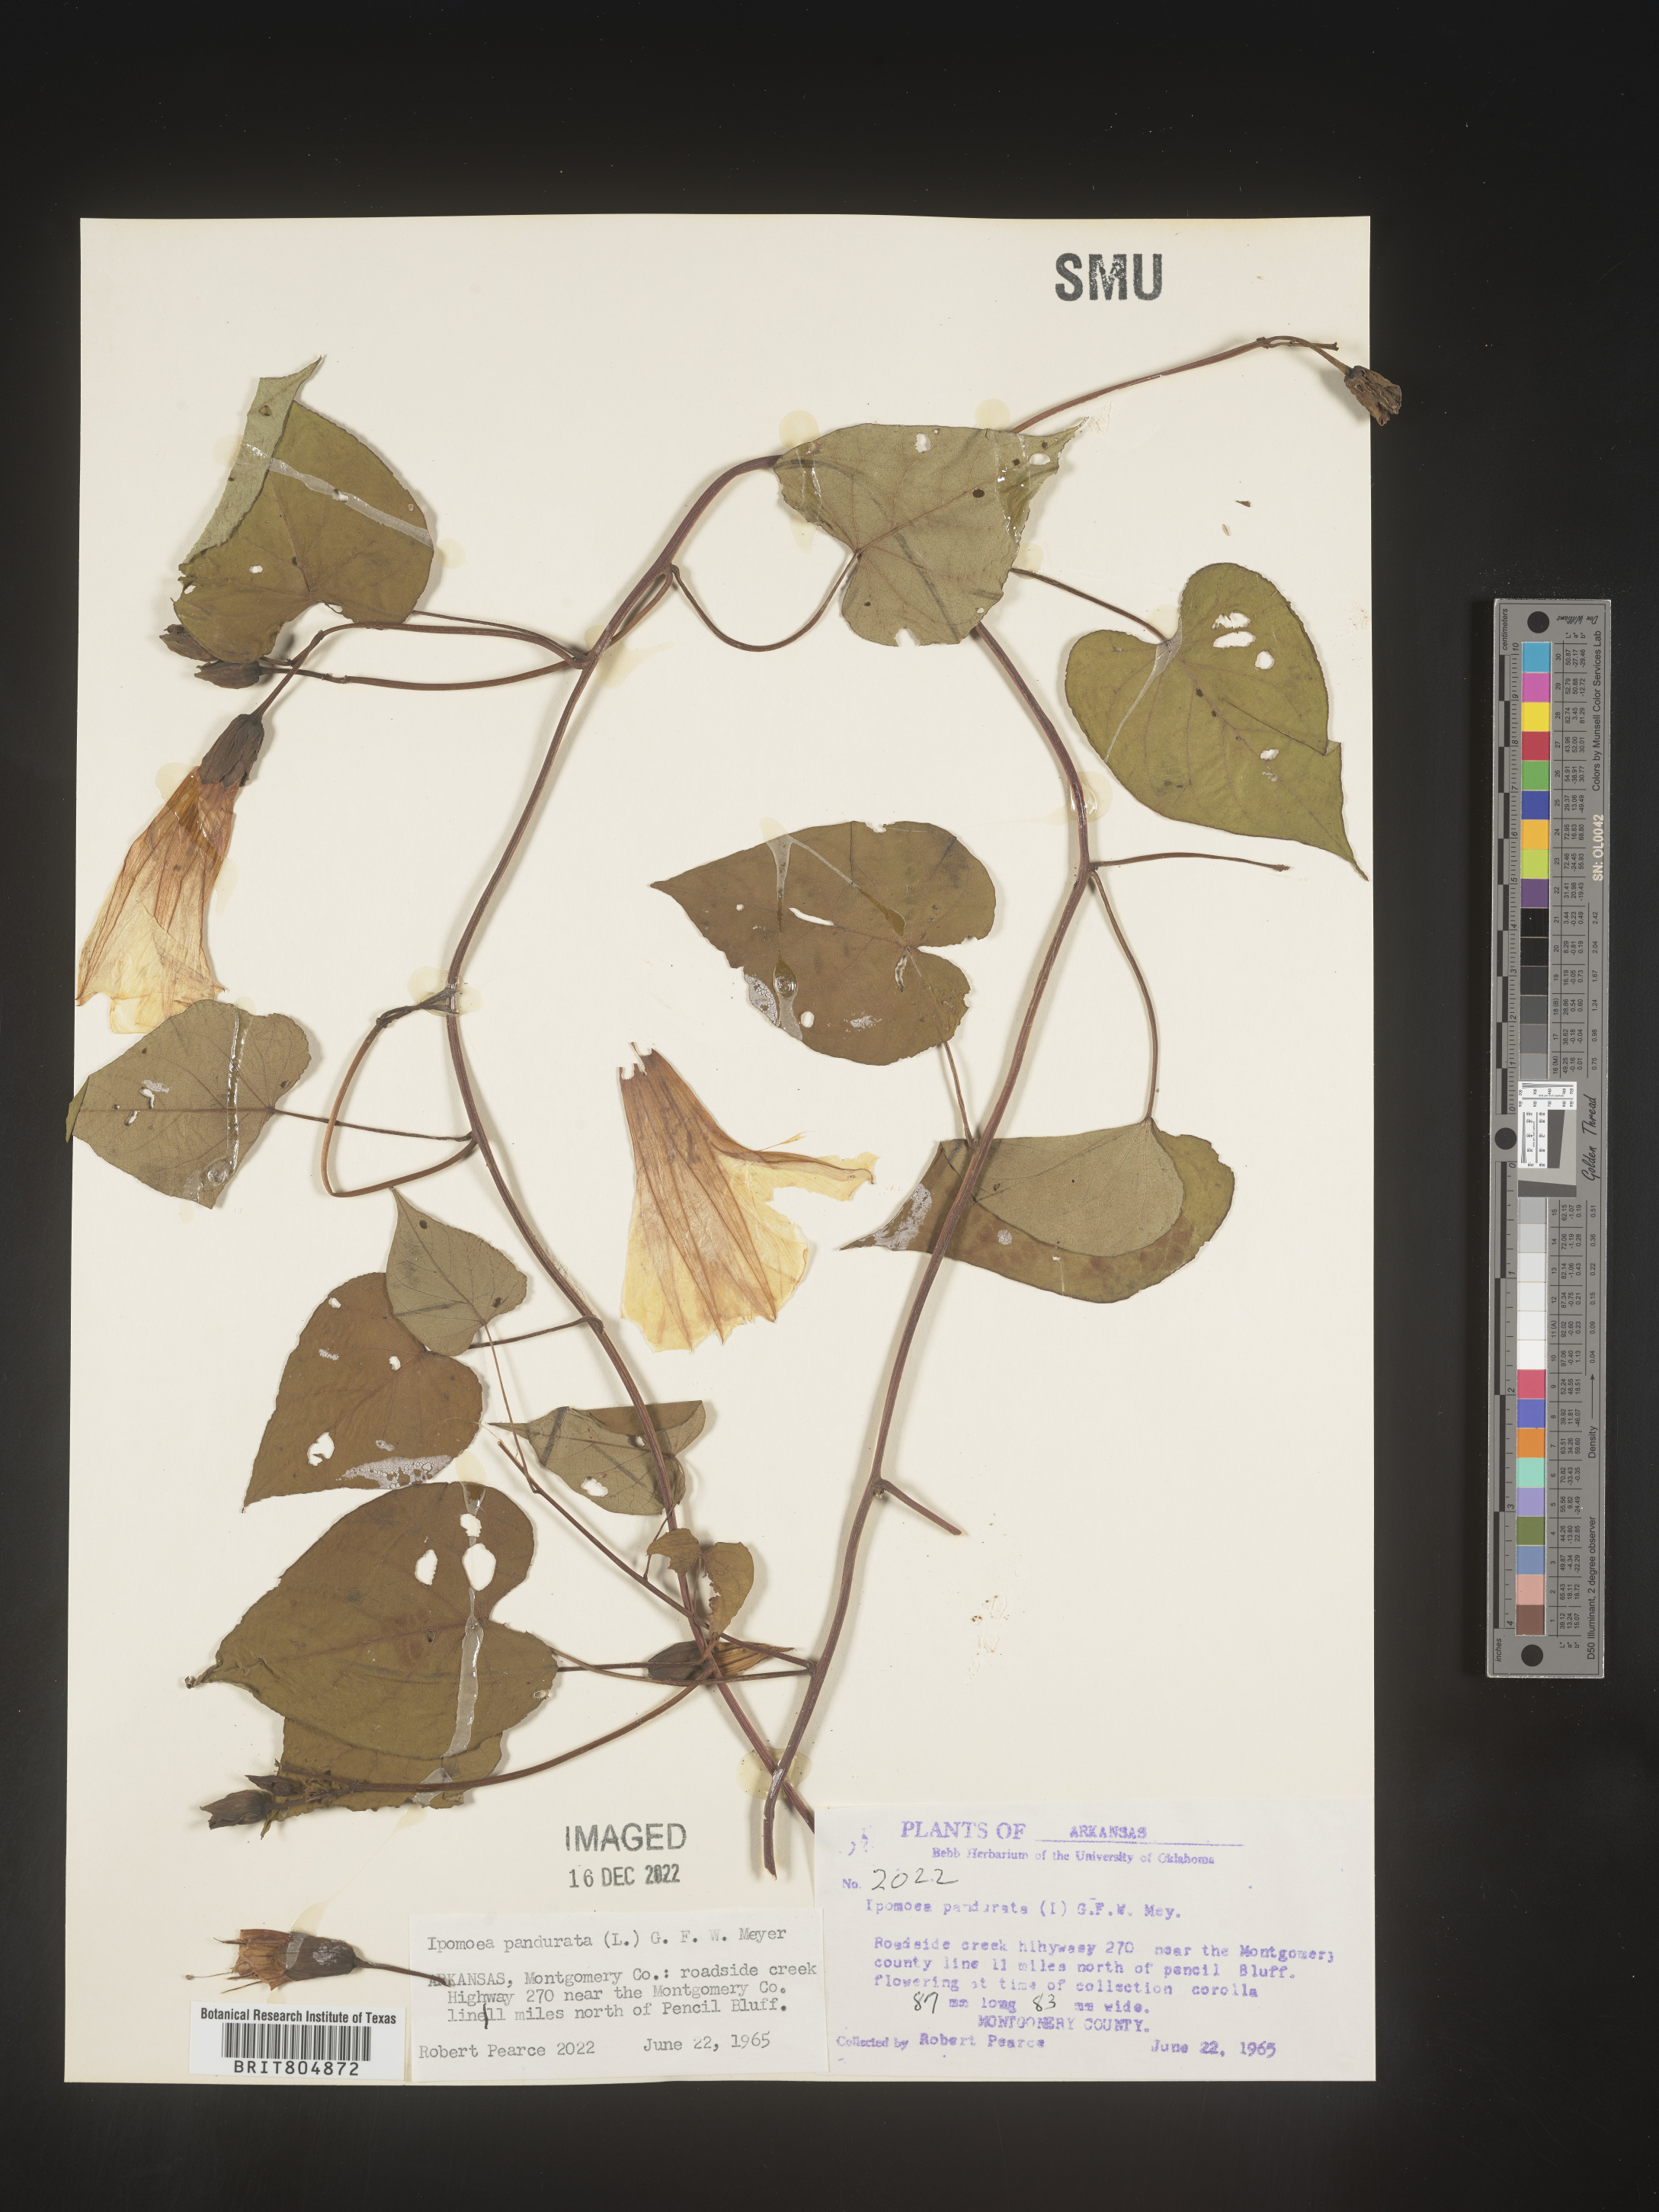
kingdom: Plantae
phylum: Tracheophyta
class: Magnoliopsida
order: Solanales
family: Convolvulaceae
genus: Ipomoea
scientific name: Ipomoea pandurata
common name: Man-of-the-earth
